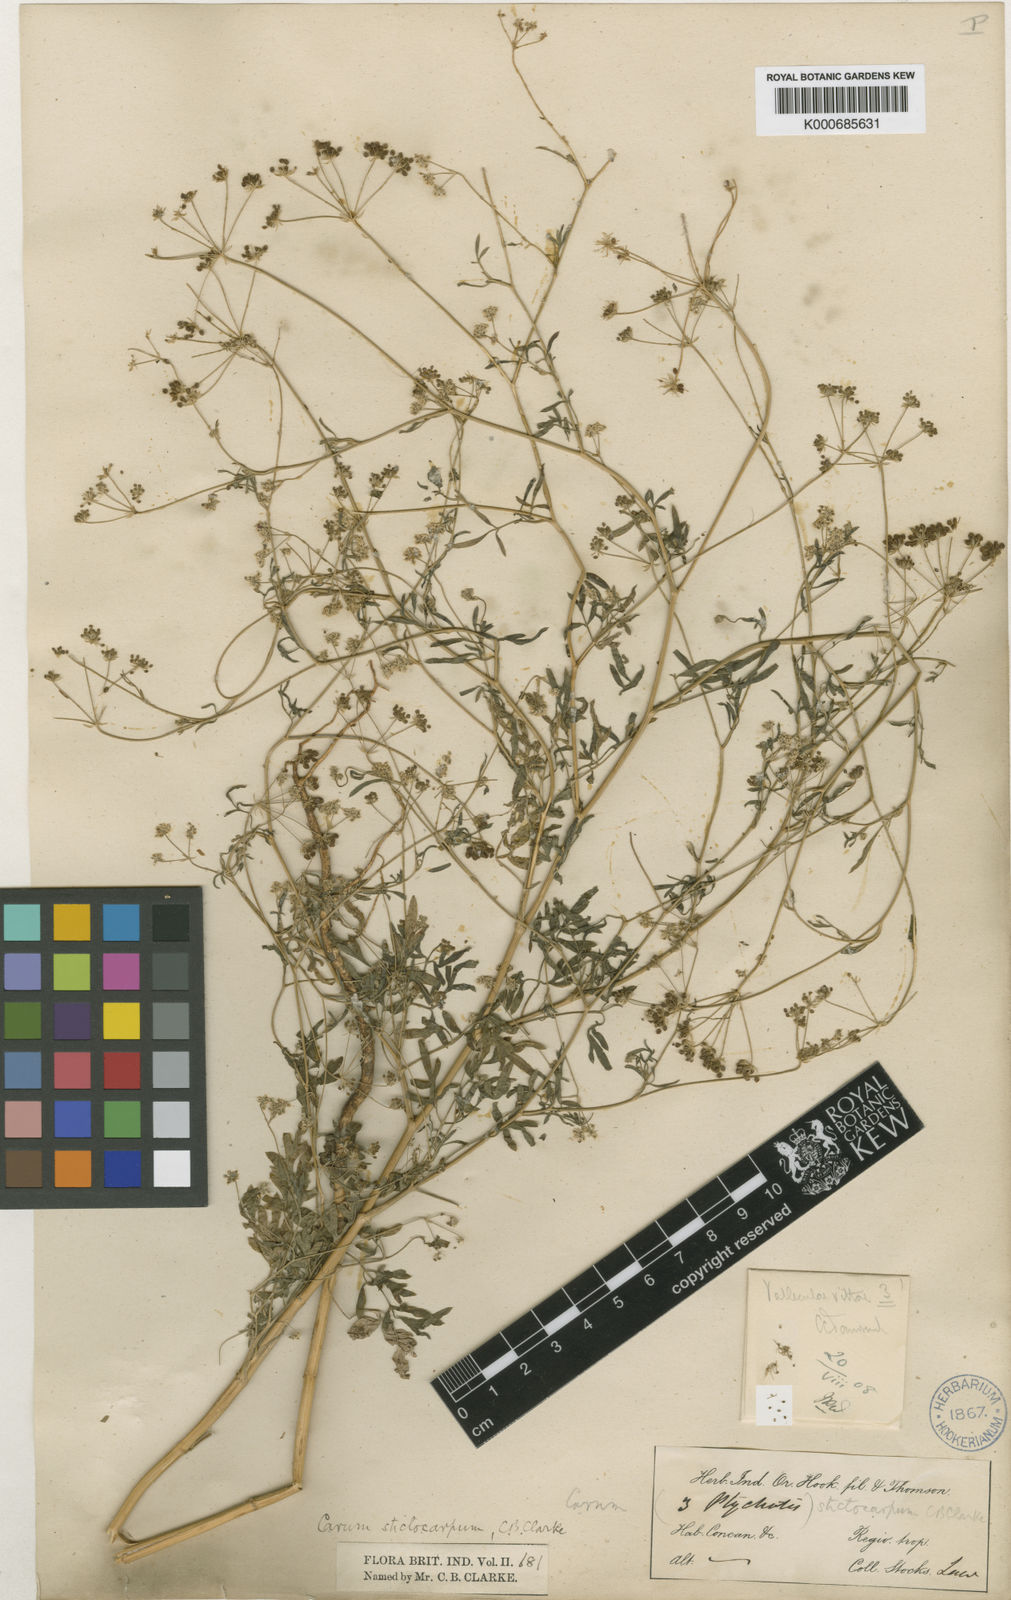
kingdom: Plantae
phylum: Tracheophyta
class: Magnoliopsida
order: Apiales
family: Apiaceae
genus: Psammogeton
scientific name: Psammogeton involucratum
